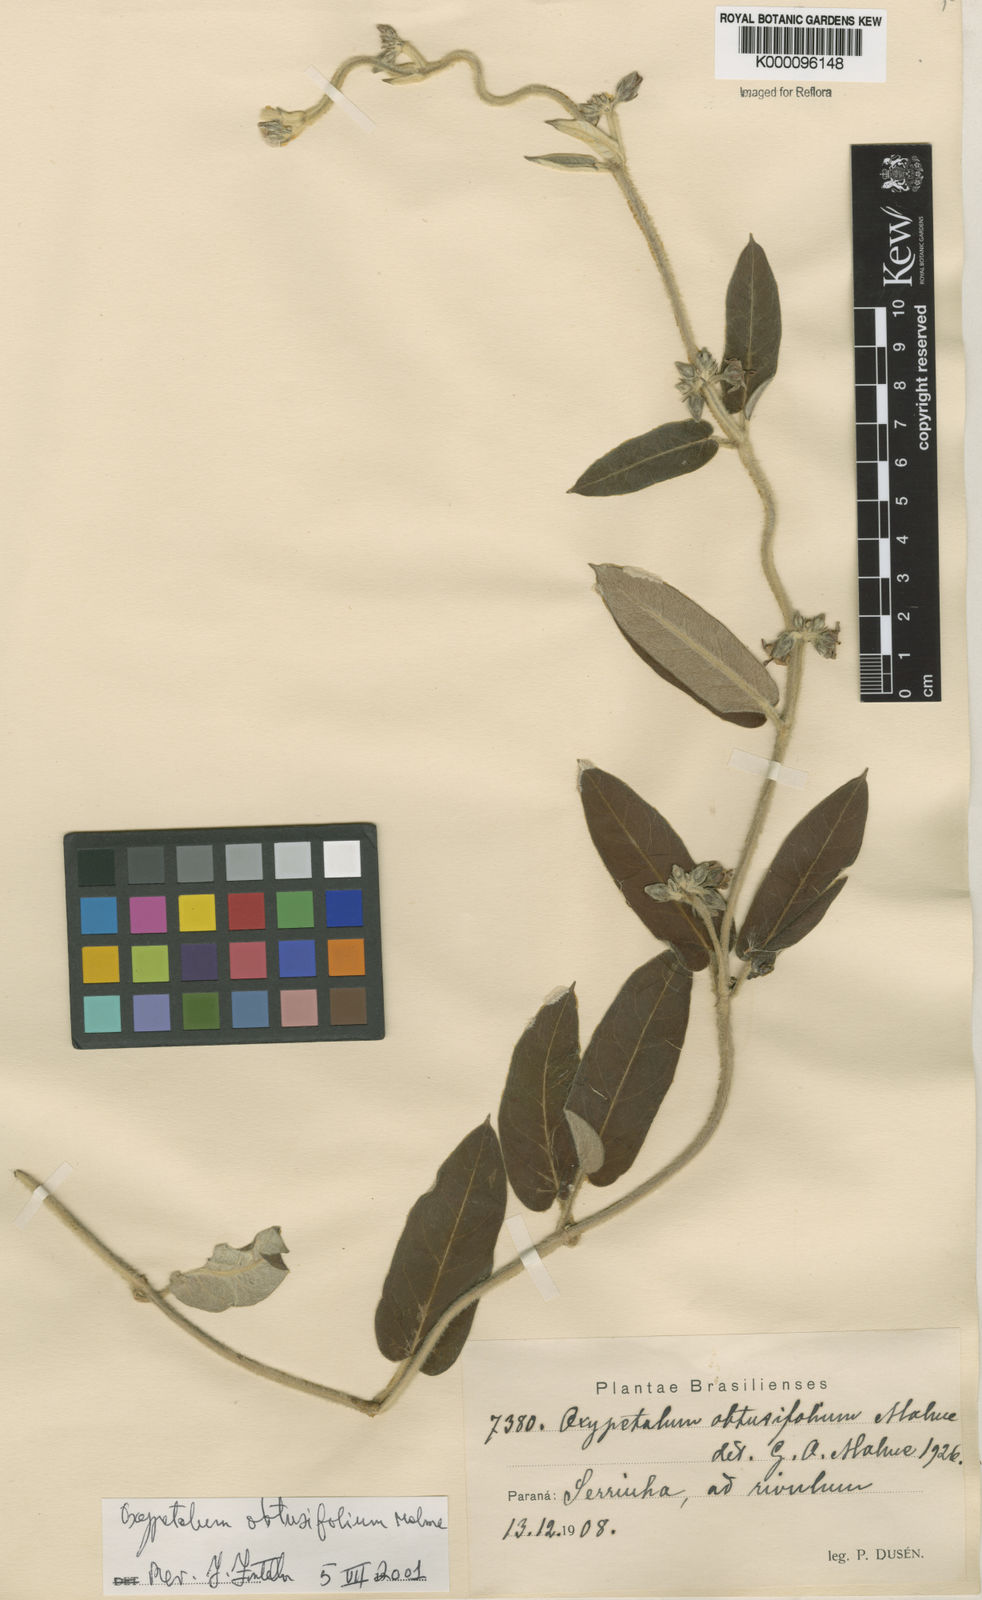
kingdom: Plantae
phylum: Tracheophyta
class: Magnoliopsida
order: Gentianales
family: Apocynaceae
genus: Oxypetalum
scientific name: Oxypetalum obtusifolium
